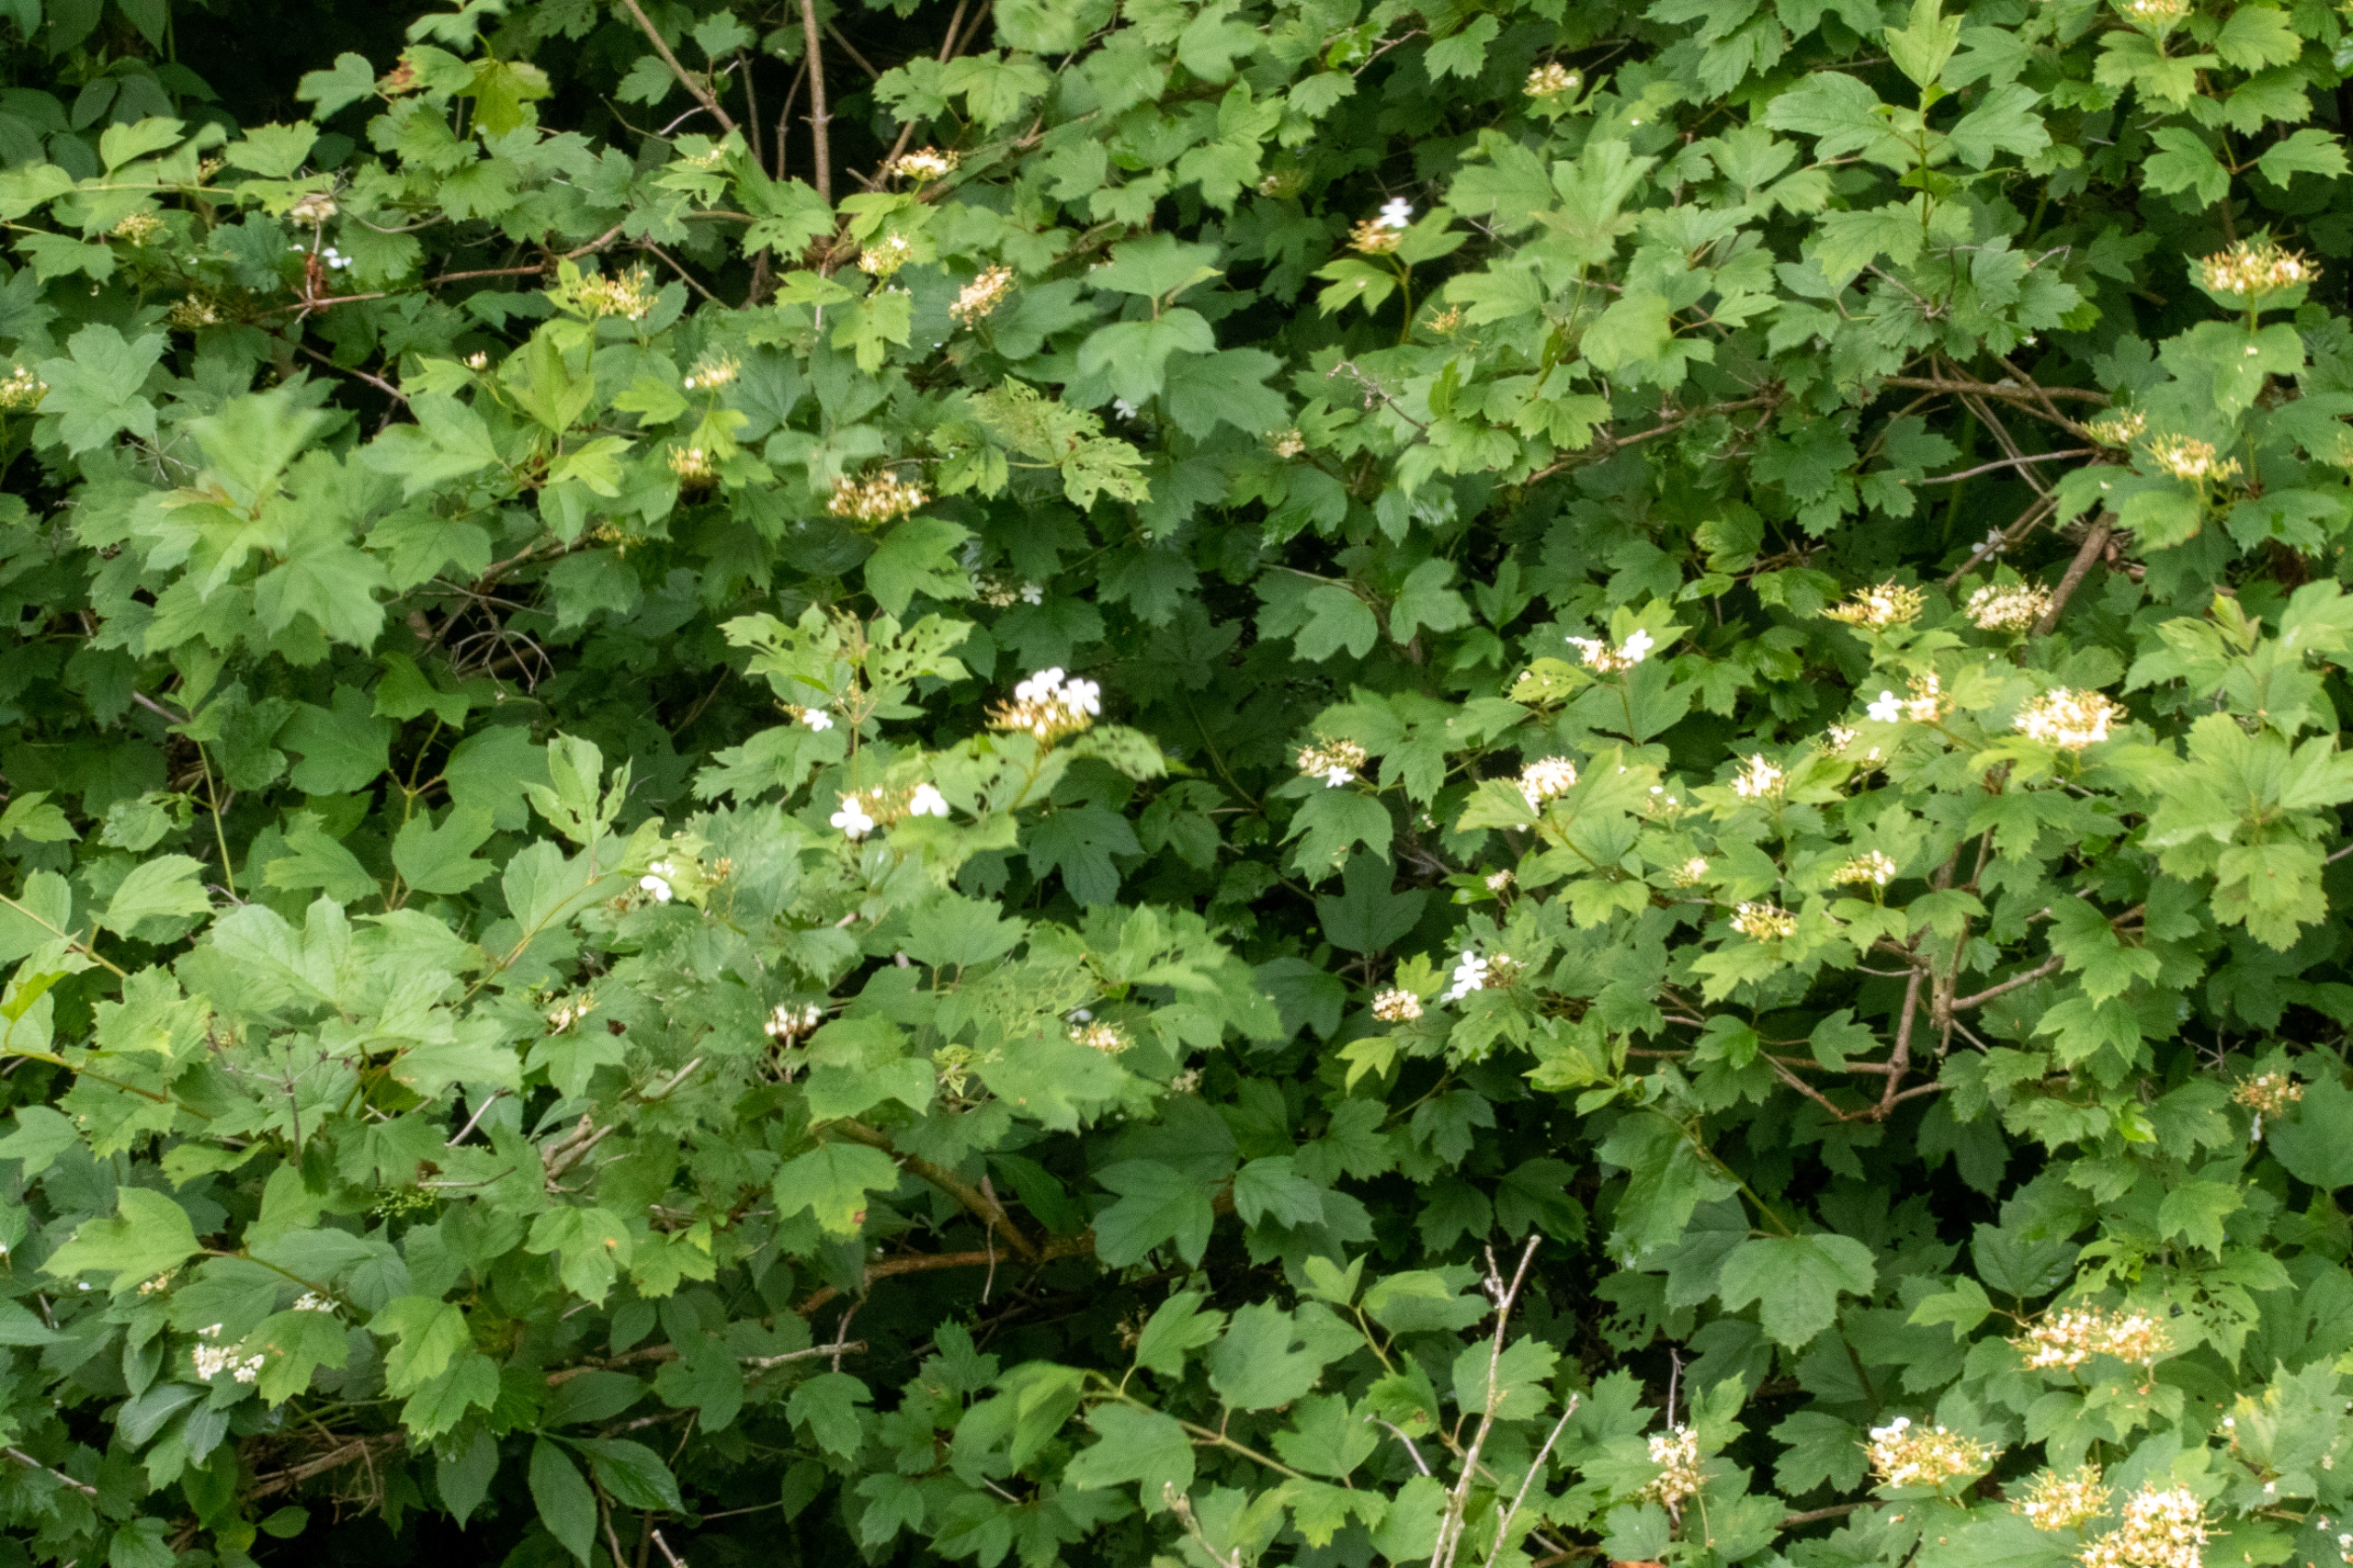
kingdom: Plantae
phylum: Tracheophyta
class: Magnoliopsida
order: Dipsacales
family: Viburnaceae
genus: Viburnum
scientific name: Viburnum opulus
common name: Kvalkved
